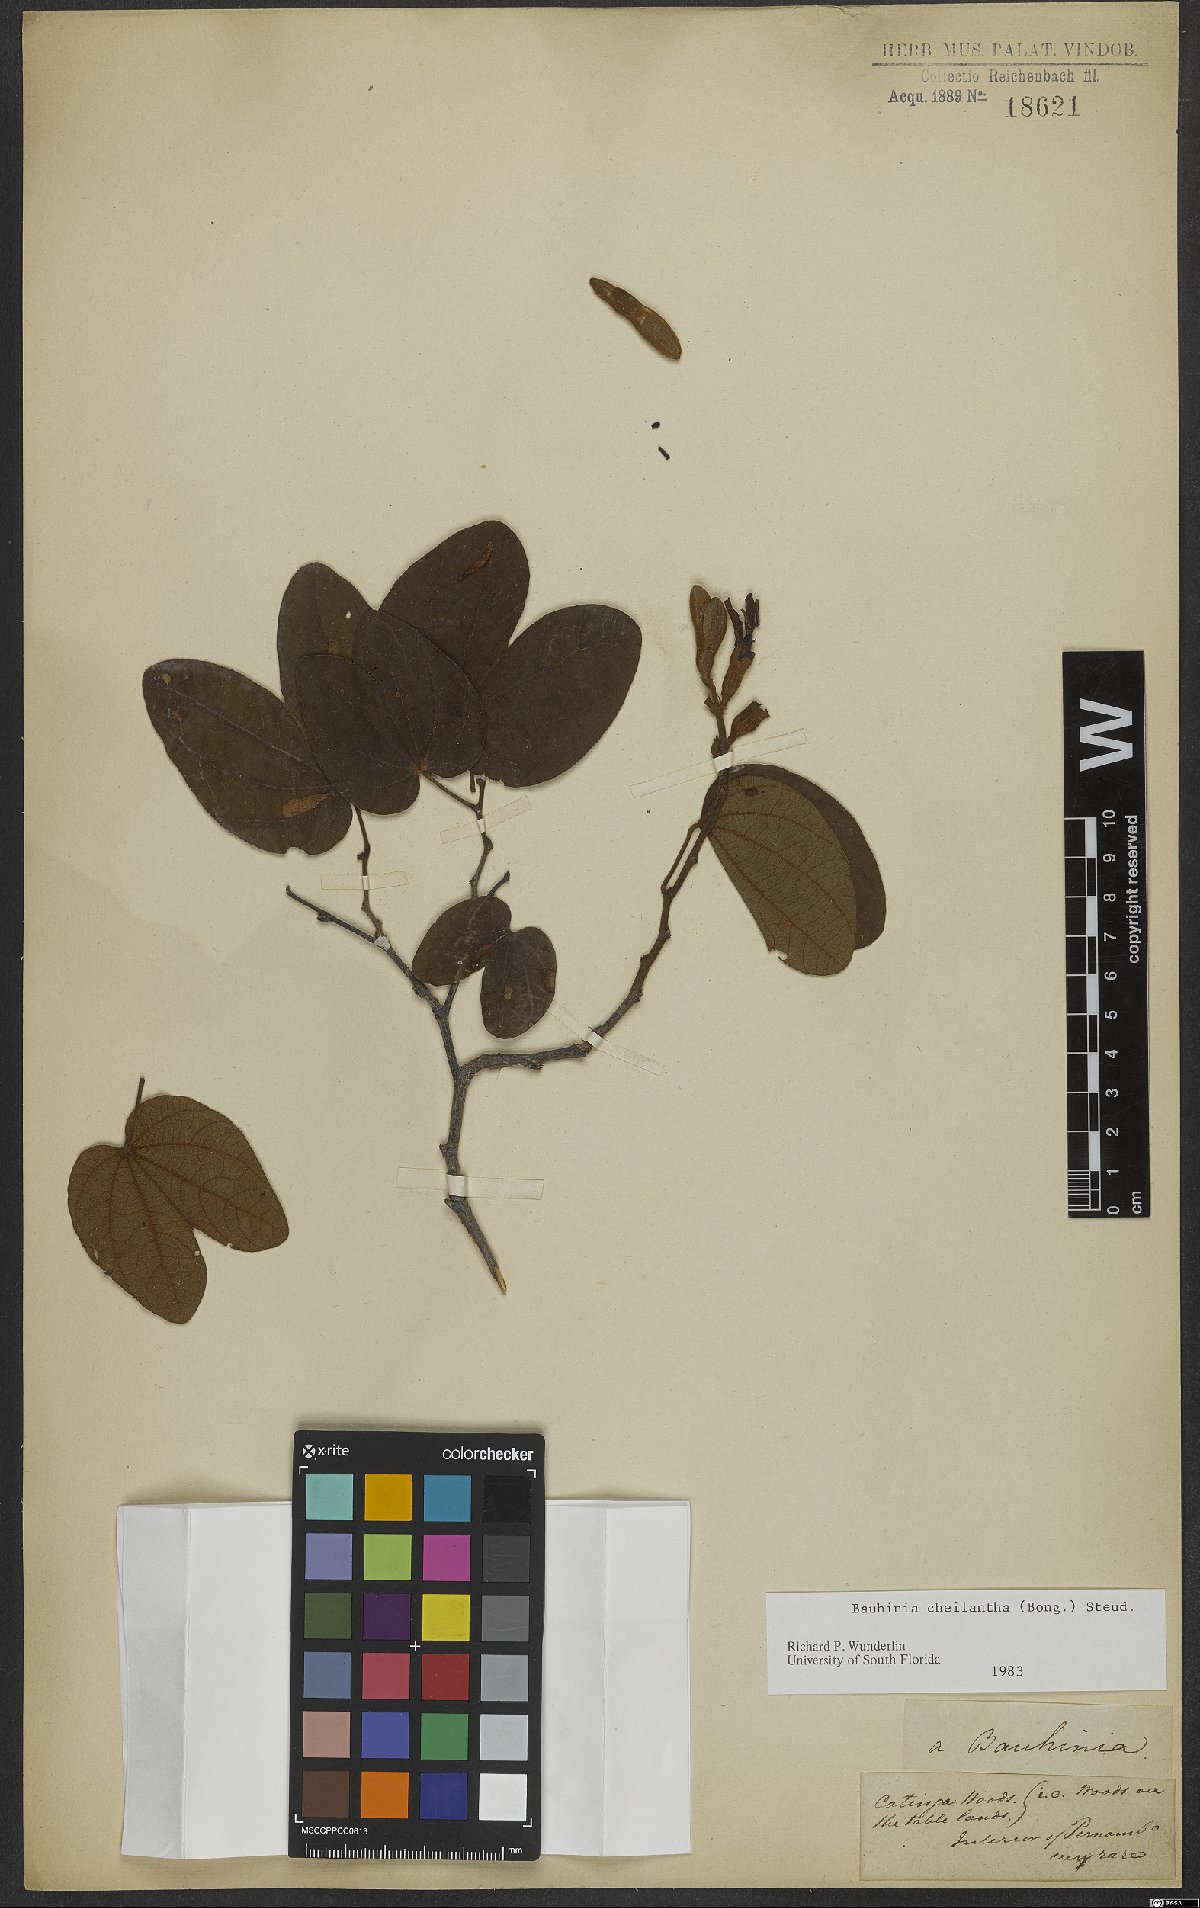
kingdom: Plantae
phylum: Tracheophyta
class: Magnoliopsida
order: Fabales
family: Fabaceae
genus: Bauhinia
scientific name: Bauhinia cheilantha
